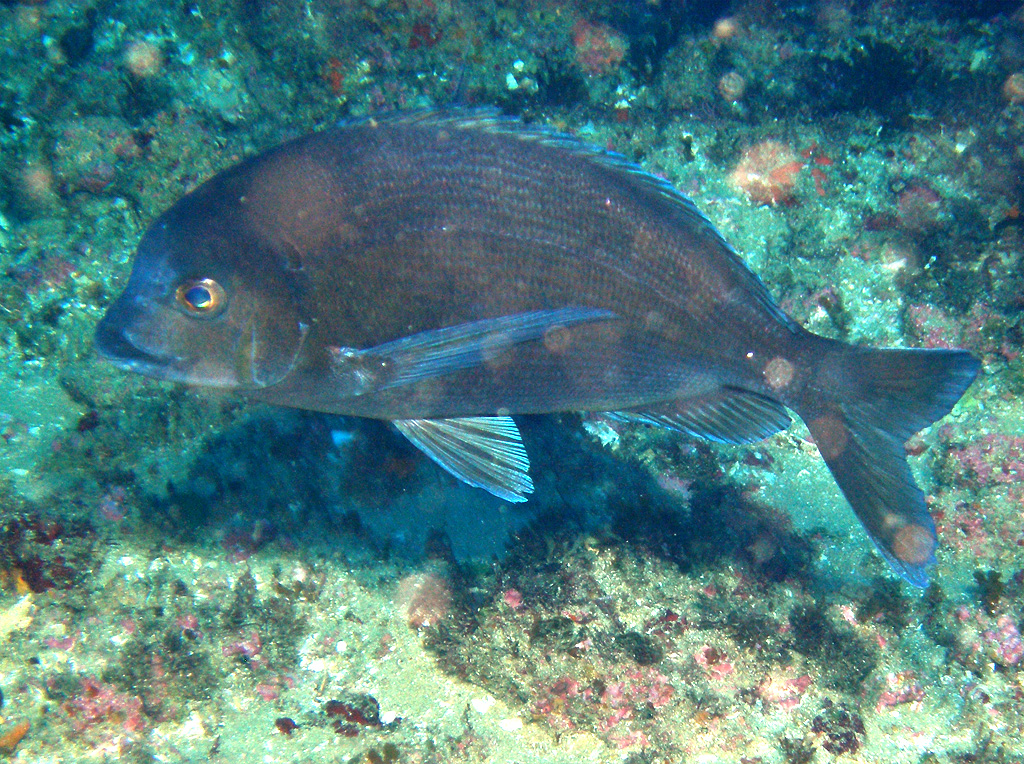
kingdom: Animalia
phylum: Chordata
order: Perciformes
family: Sparidae
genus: Polyamblyodon
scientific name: Polyamblyodon germanum
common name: German seabream
